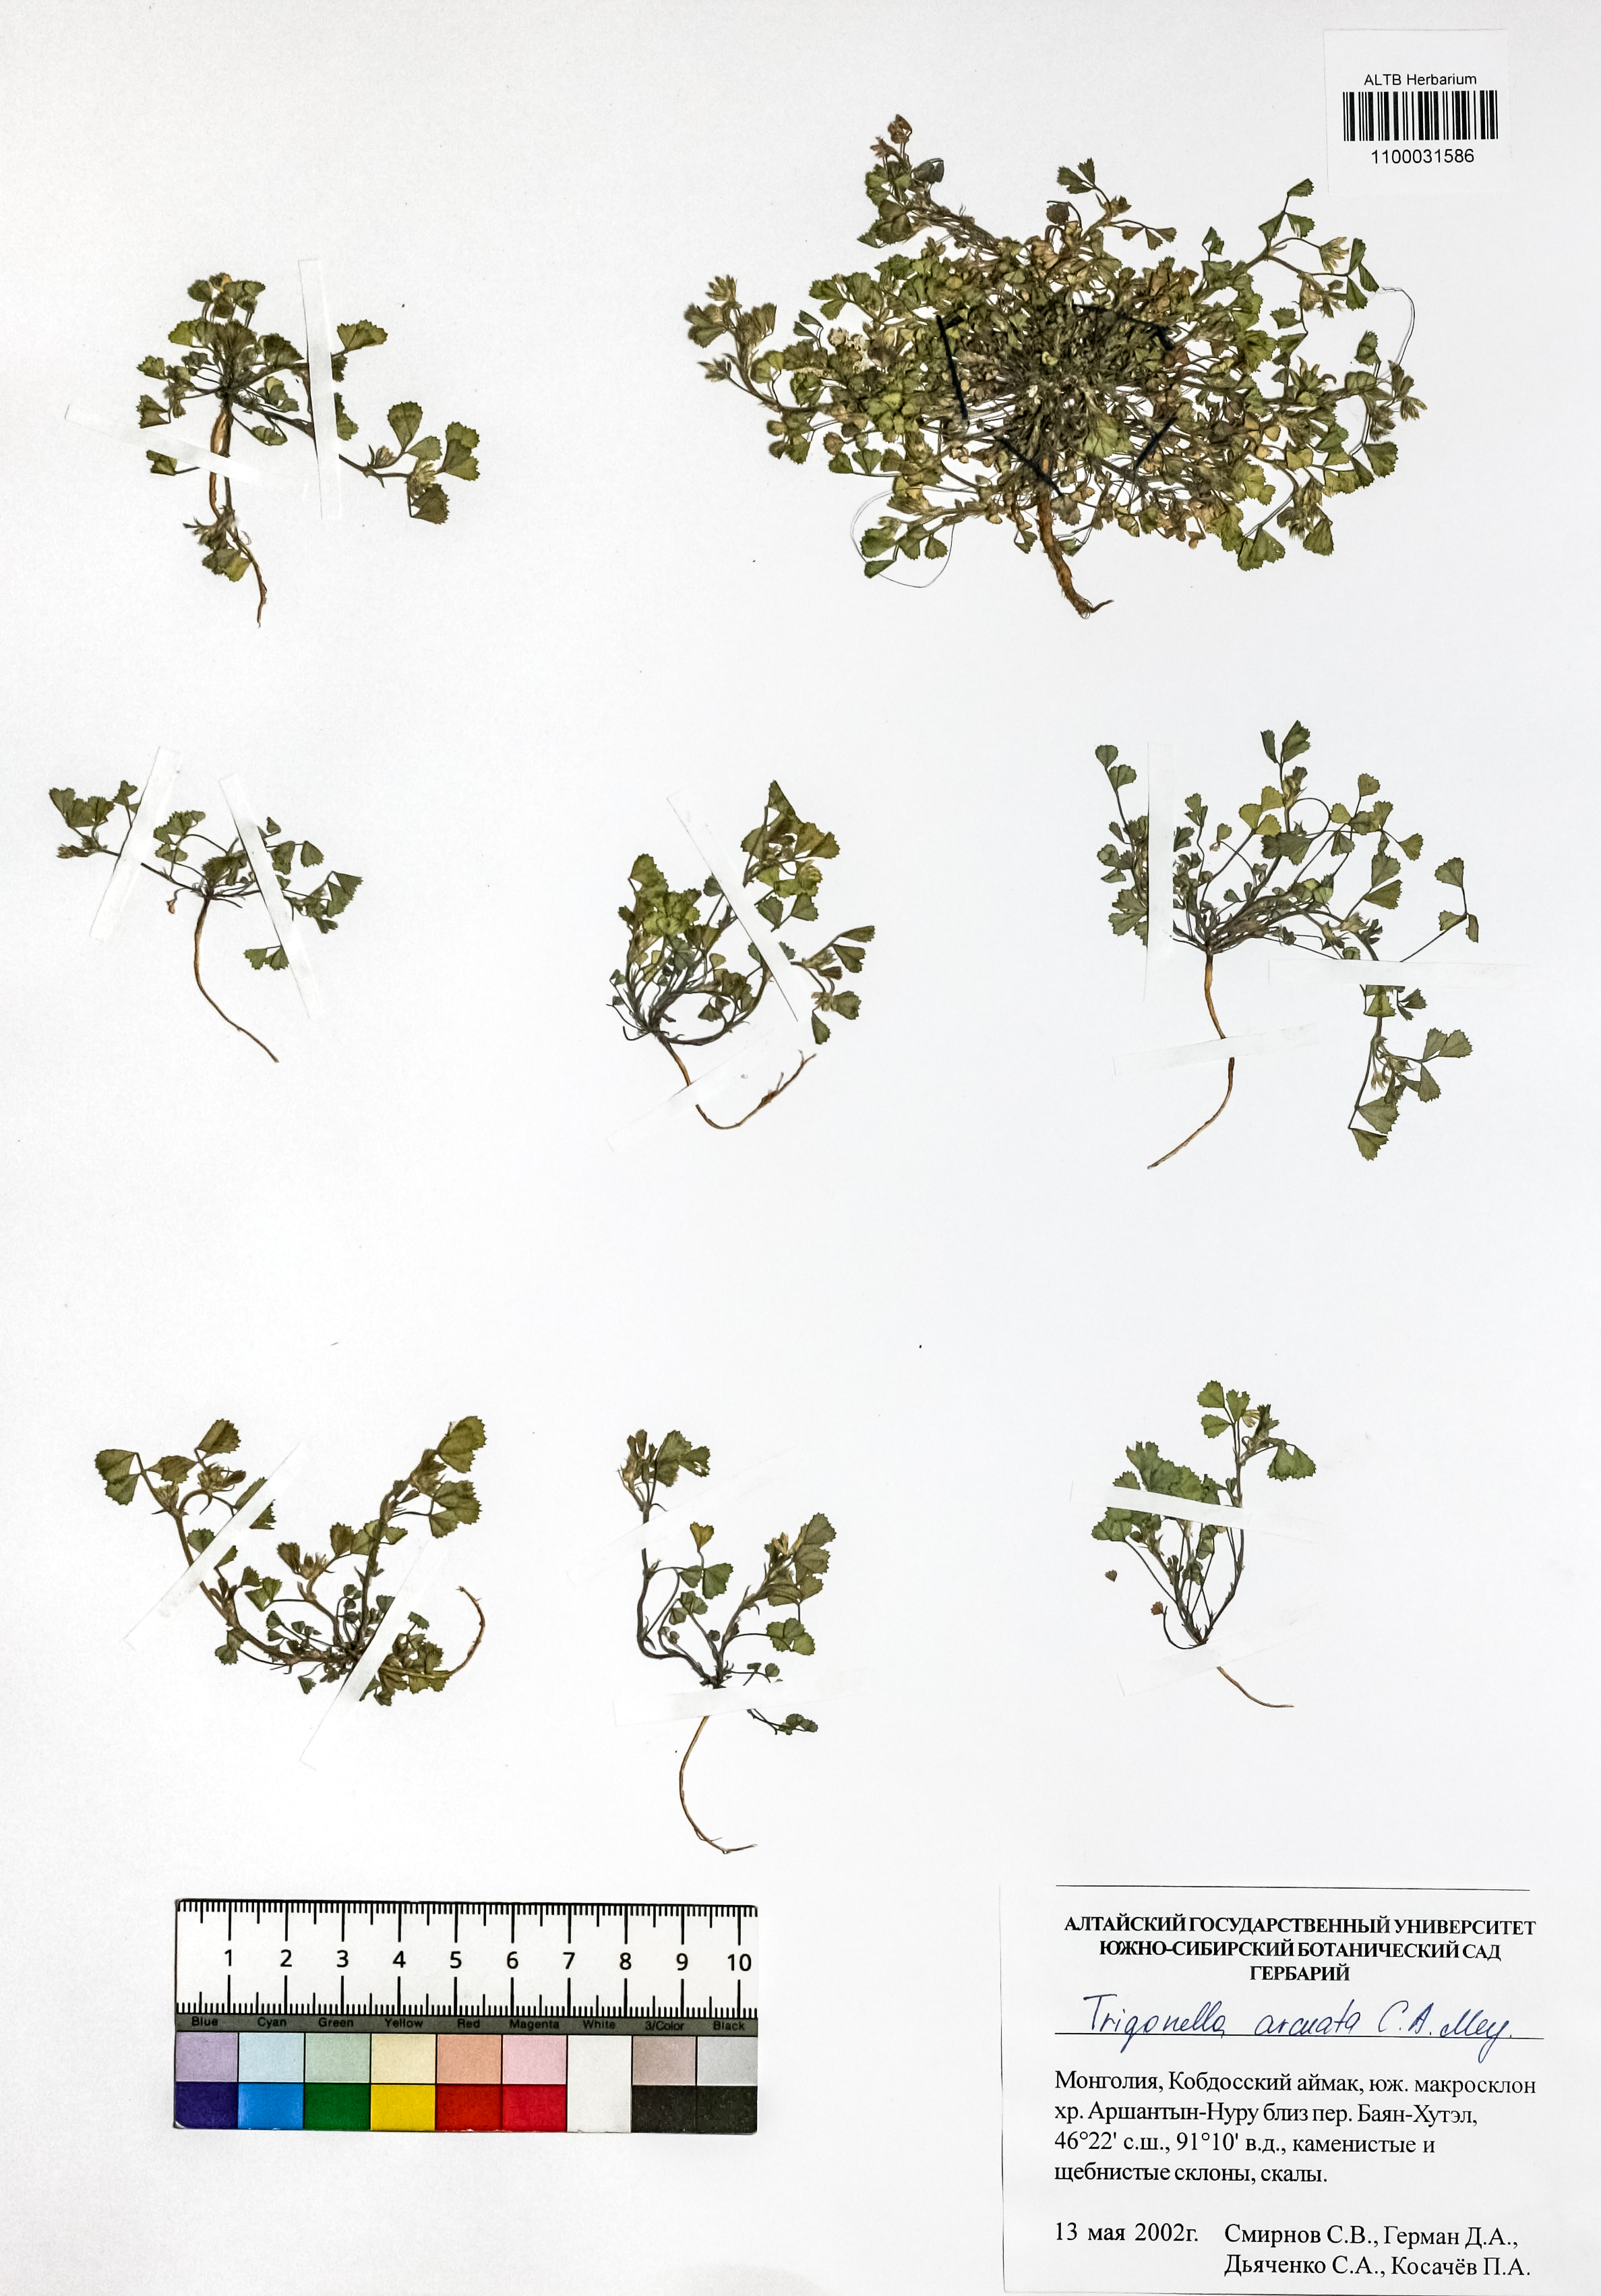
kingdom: Plantae
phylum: Tracheophyta
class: Magnoliopsida
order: Fabales
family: Fabaceae
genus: Medicago
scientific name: Medicago medicaginoides
